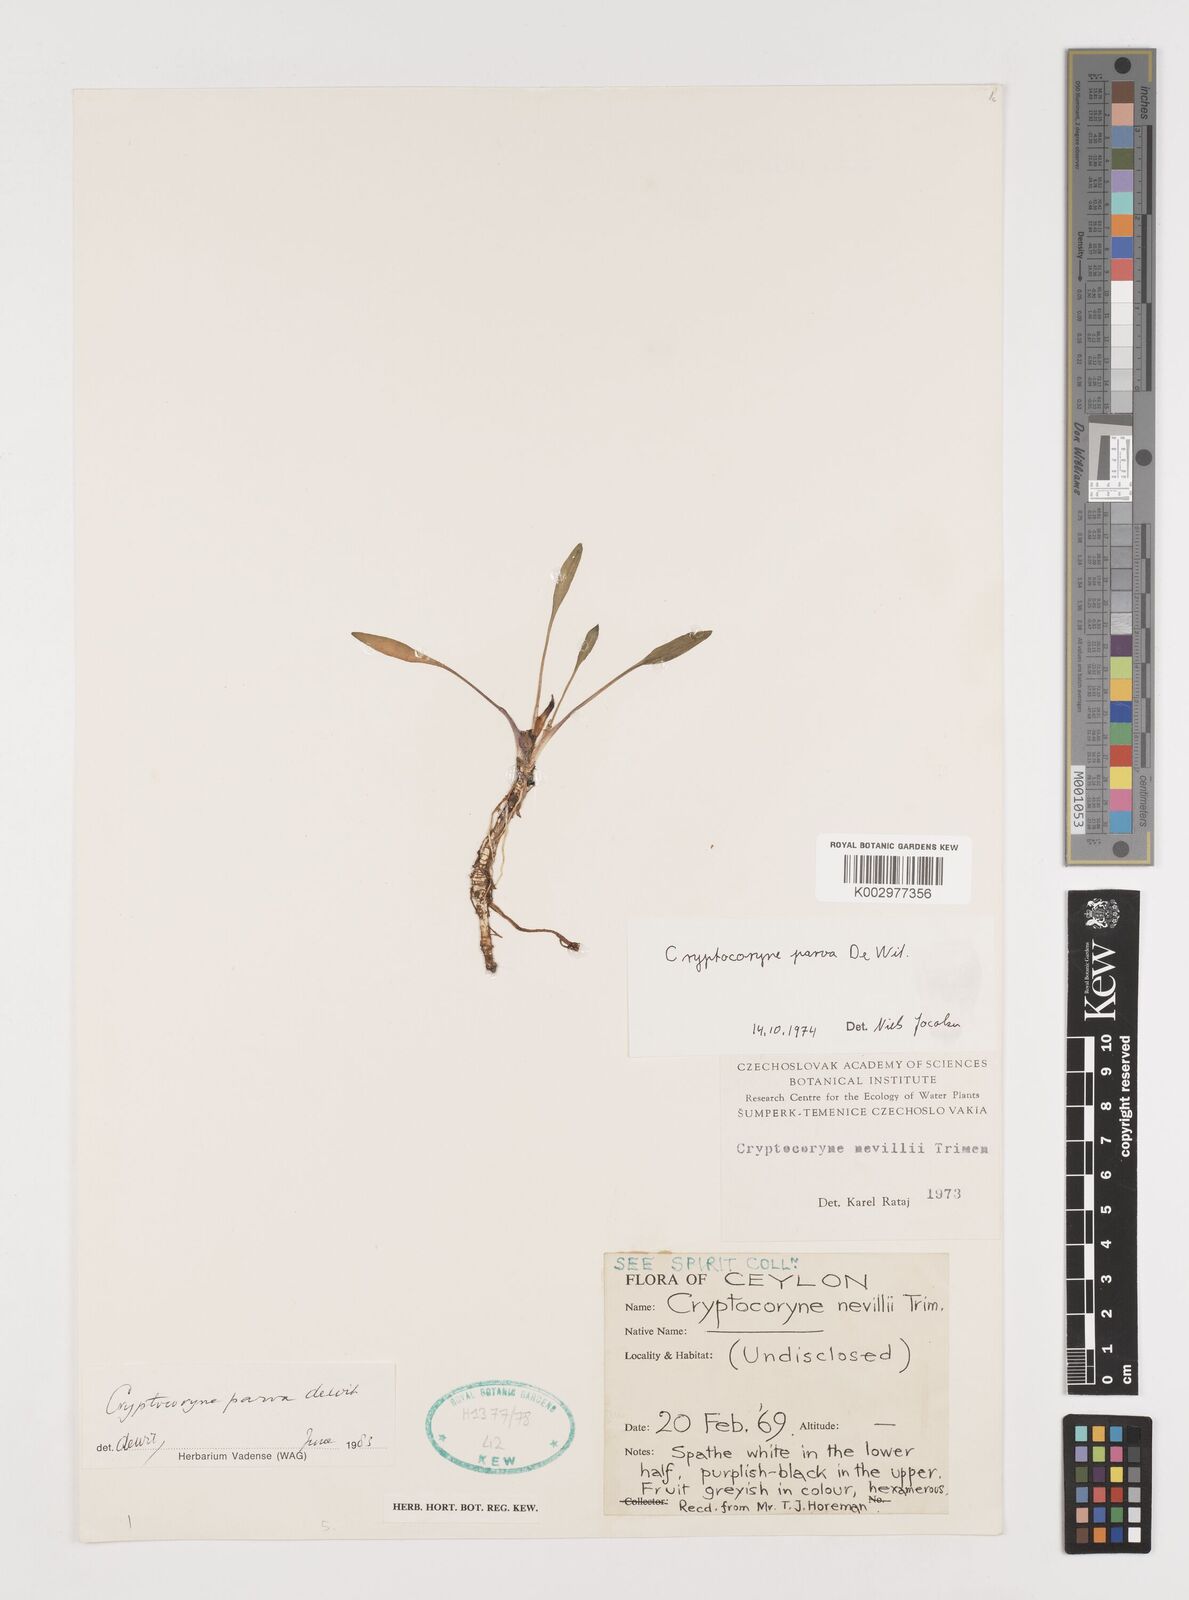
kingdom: Plantae
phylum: Tracheophyta
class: Liliopsida
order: Alismatales
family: Araceae
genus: Cryptocoryne
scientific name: Cryptocoryne parva
